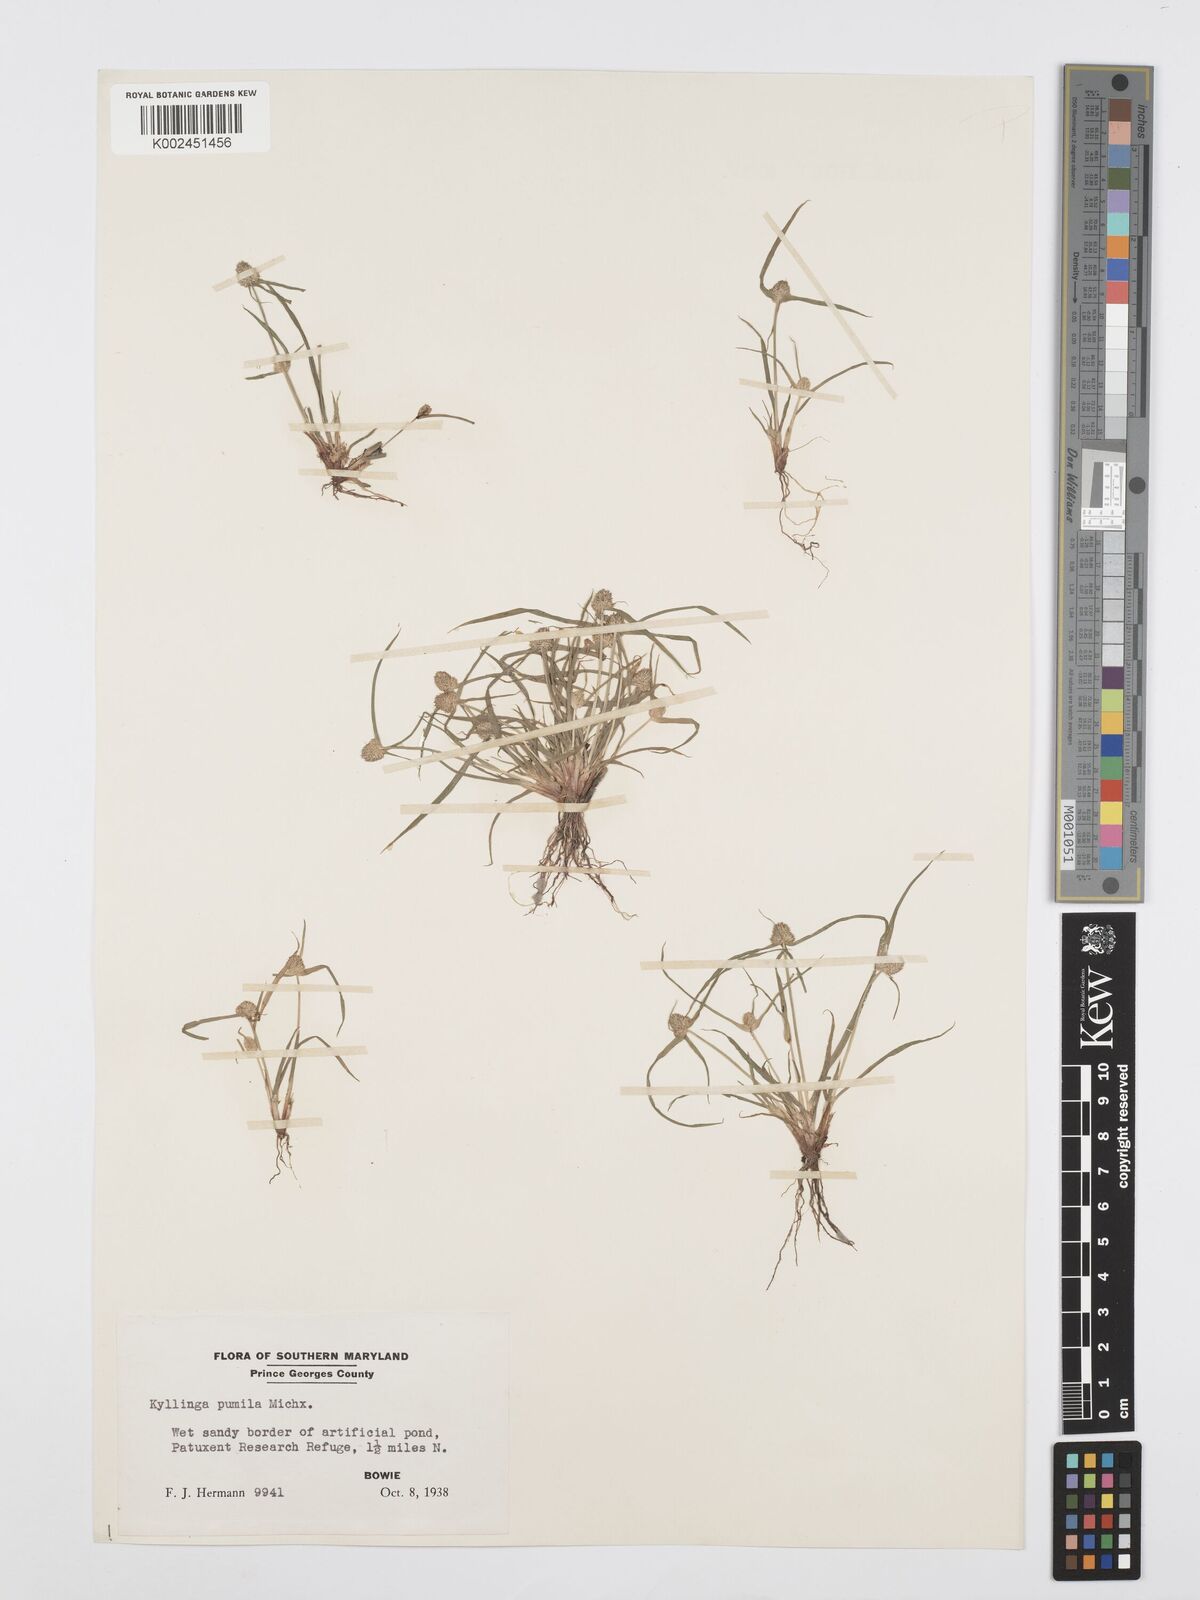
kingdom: Plantae
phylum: Tracheophyta
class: Liliopsida
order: Poales
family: Cyperaceae
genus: Cyperus
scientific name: Cyperus
